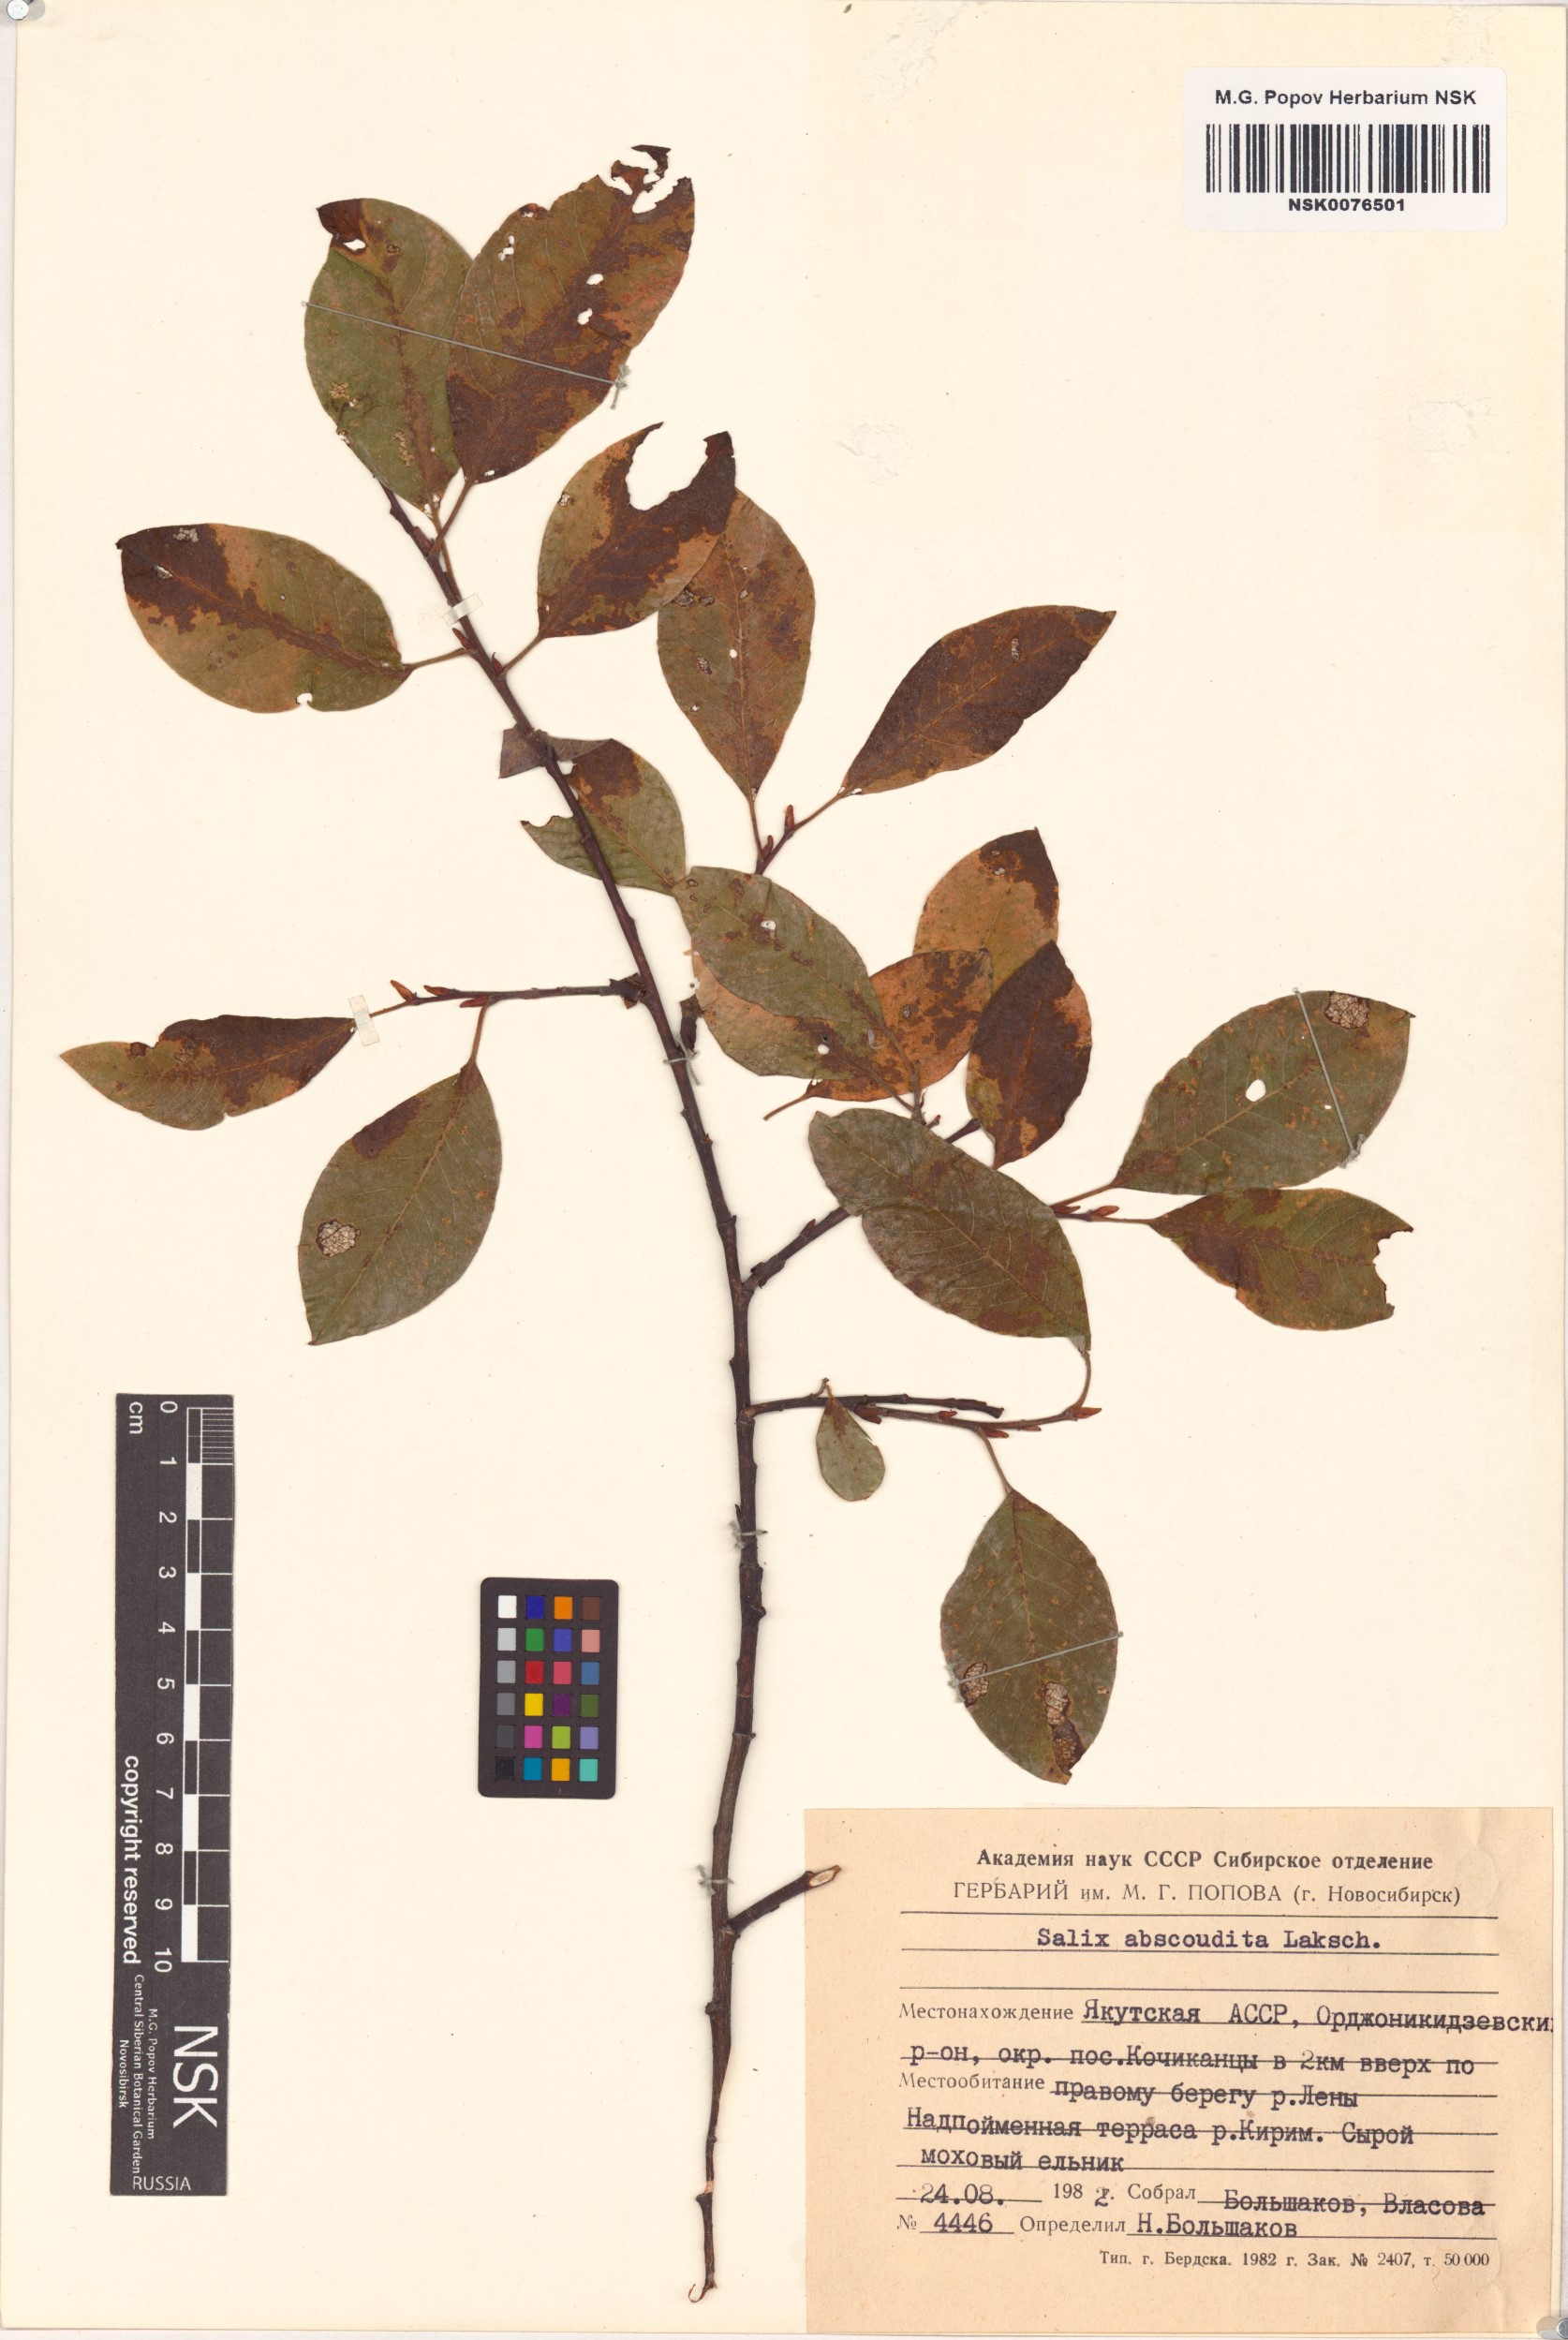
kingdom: Plantae
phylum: Tracheophyta
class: Magnoliopsida
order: Malpighiales
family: Salicaceae
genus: Salix
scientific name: Salix abscondita
